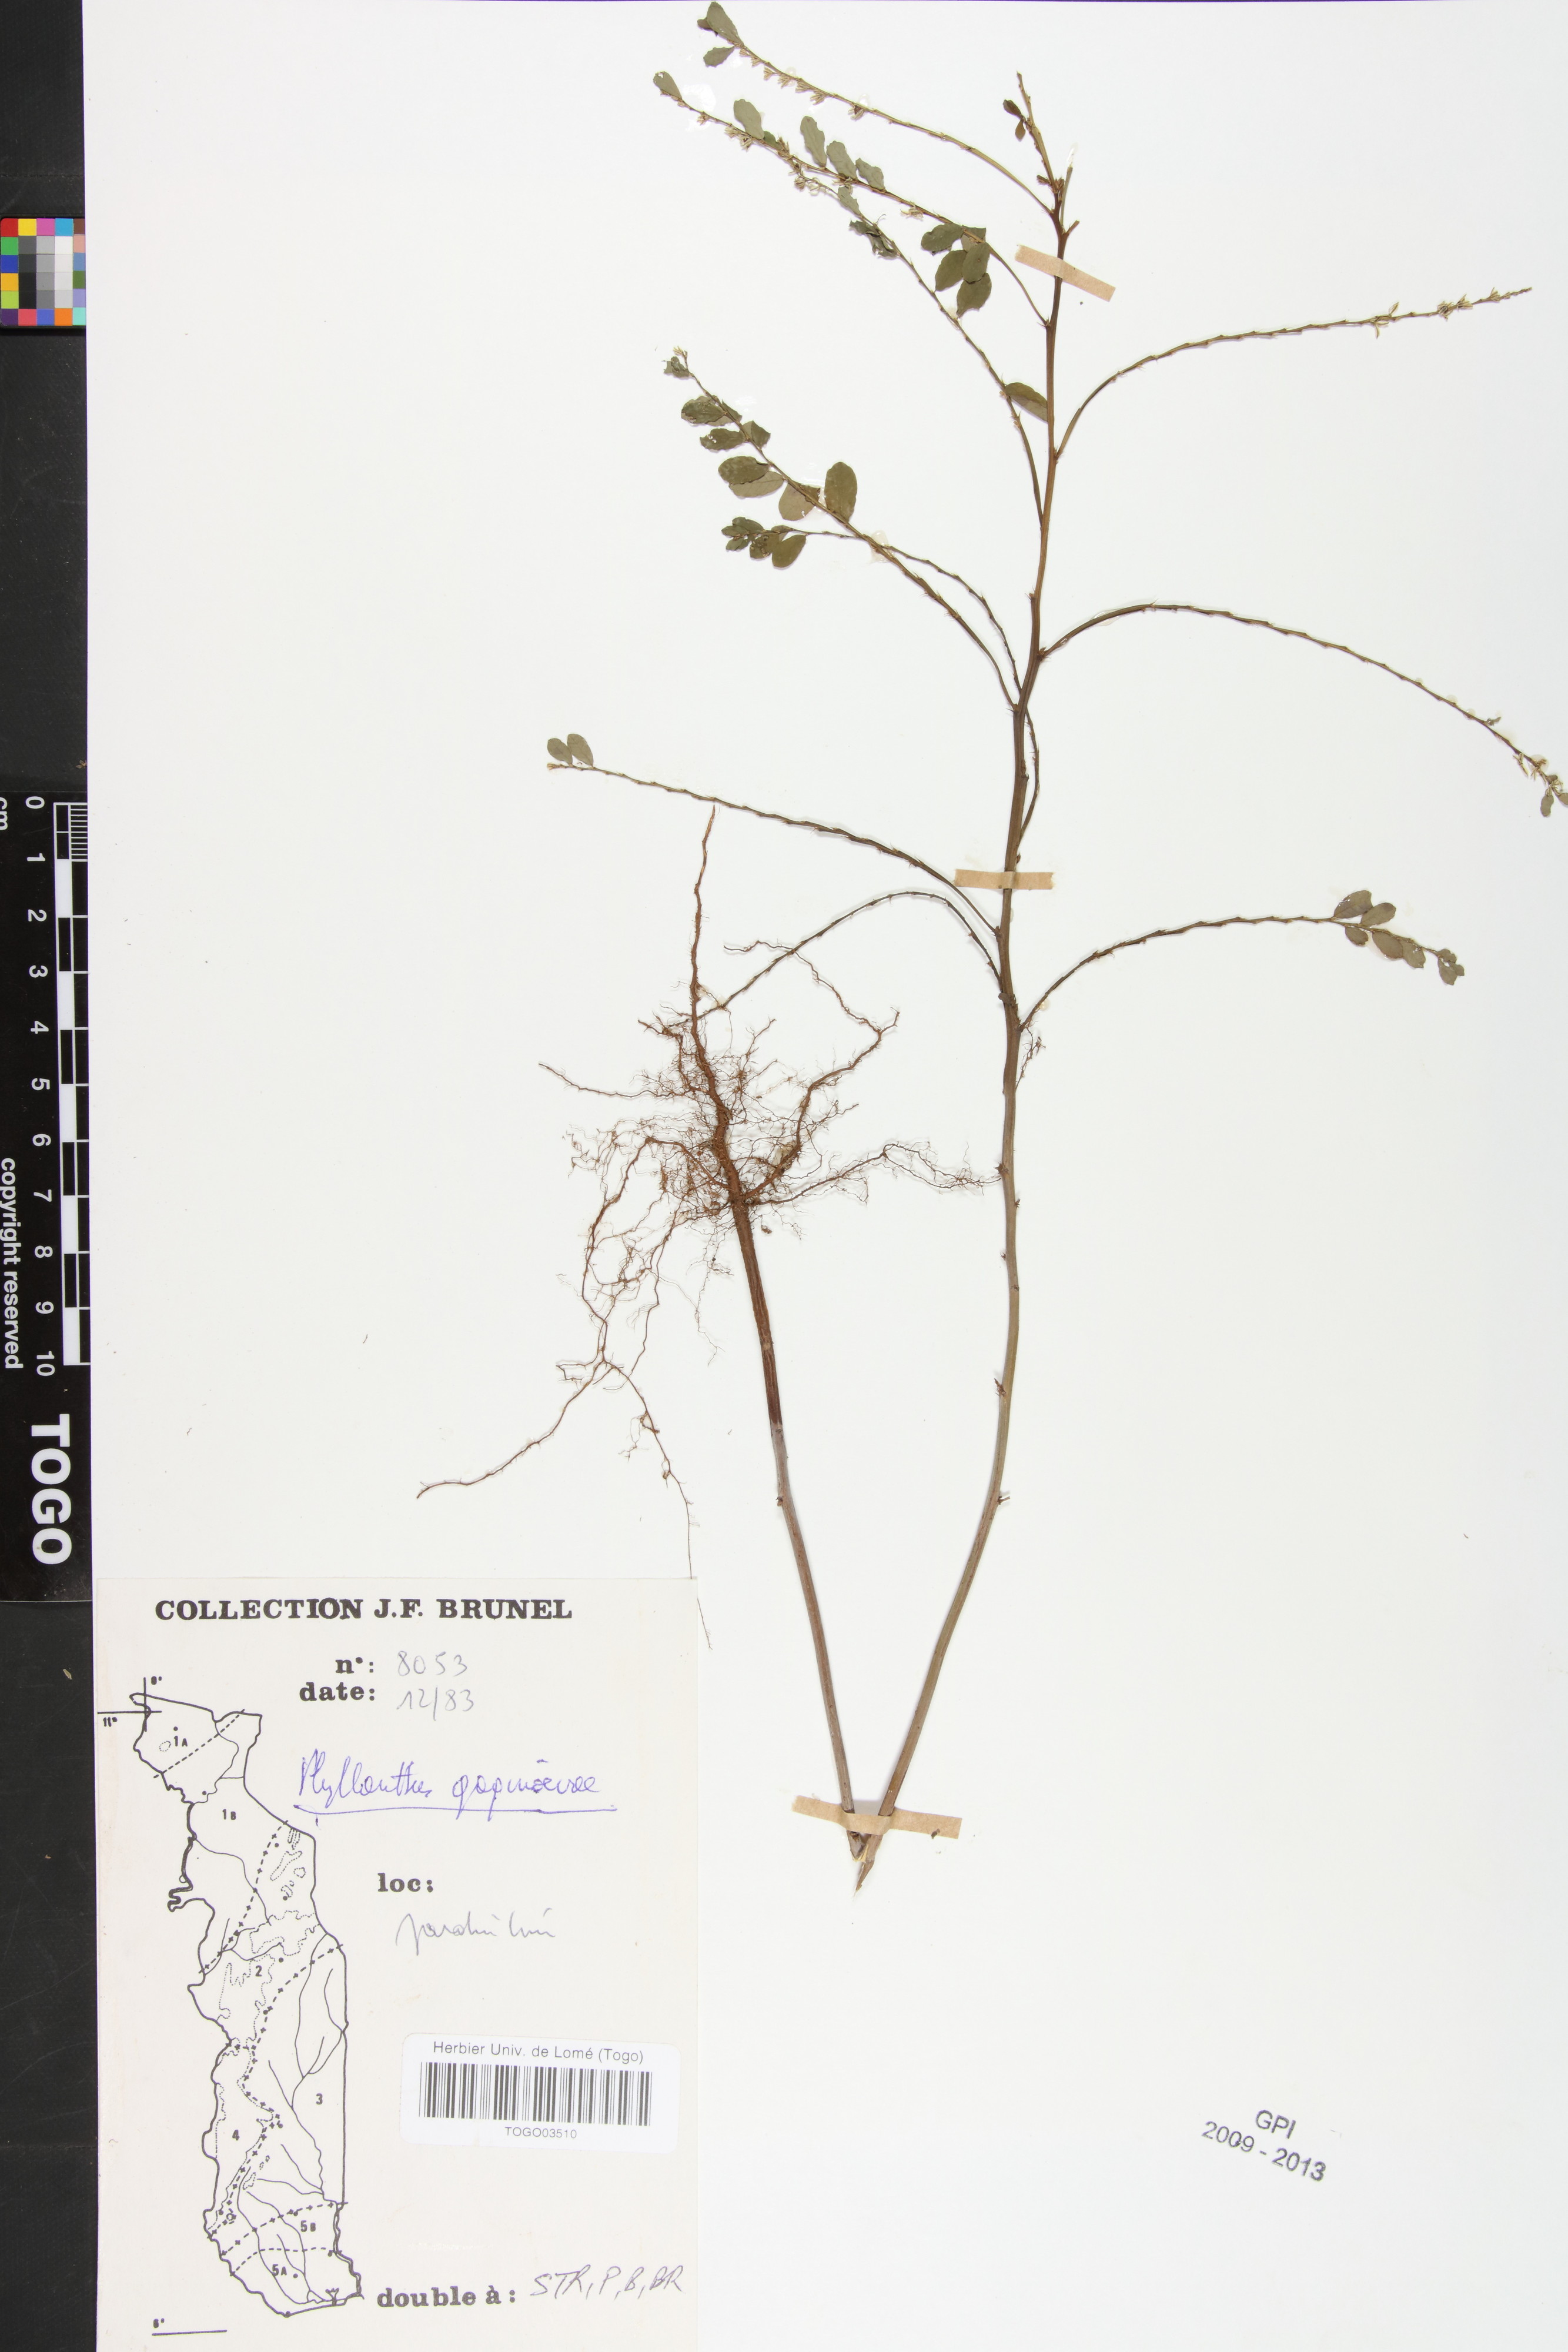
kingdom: Plantae
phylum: Tracheophyta
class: Magnoliopsida
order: Malpighiales
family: Phyllanthaceae
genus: Phyllanthus
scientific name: Phyllanthus gagnioevae
